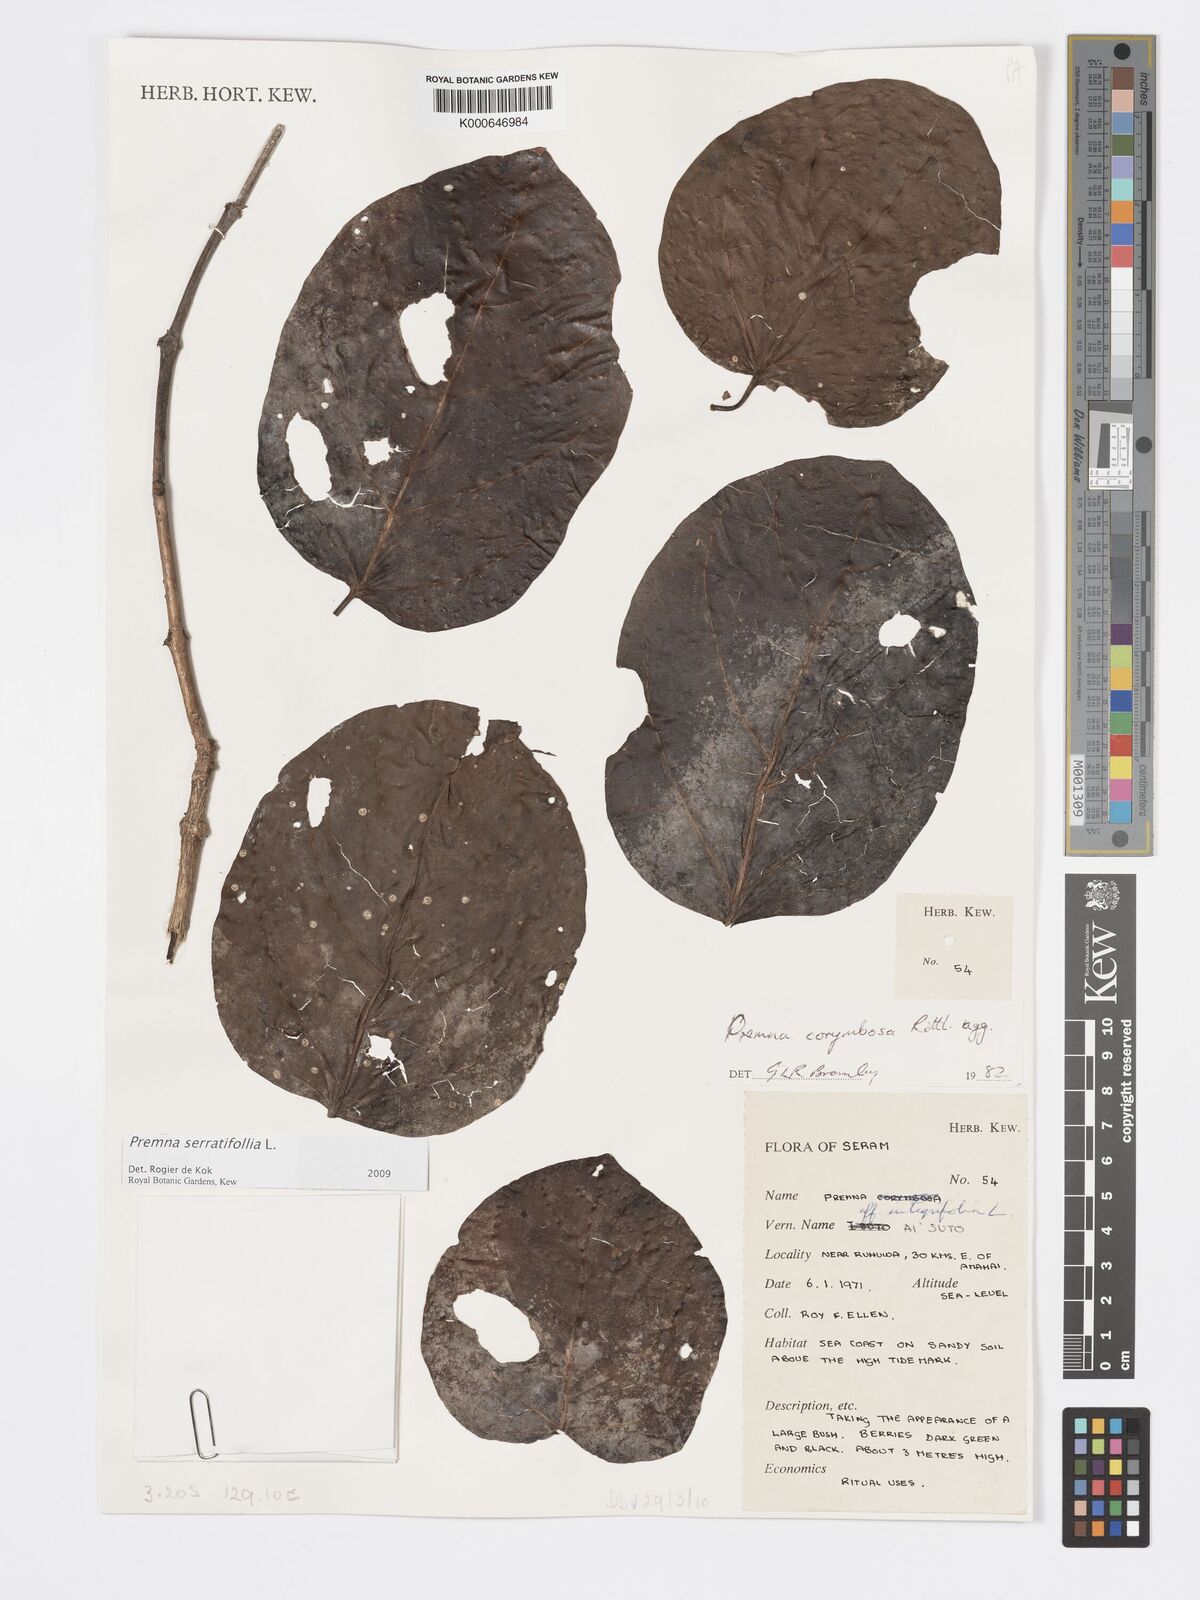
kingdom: Plantae
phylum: Tracheophyta
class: Magnoliopsida
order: Lamiales
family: Lamiaceae
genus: Premna
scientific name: Premna serratifolia
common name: Bastard guelder
